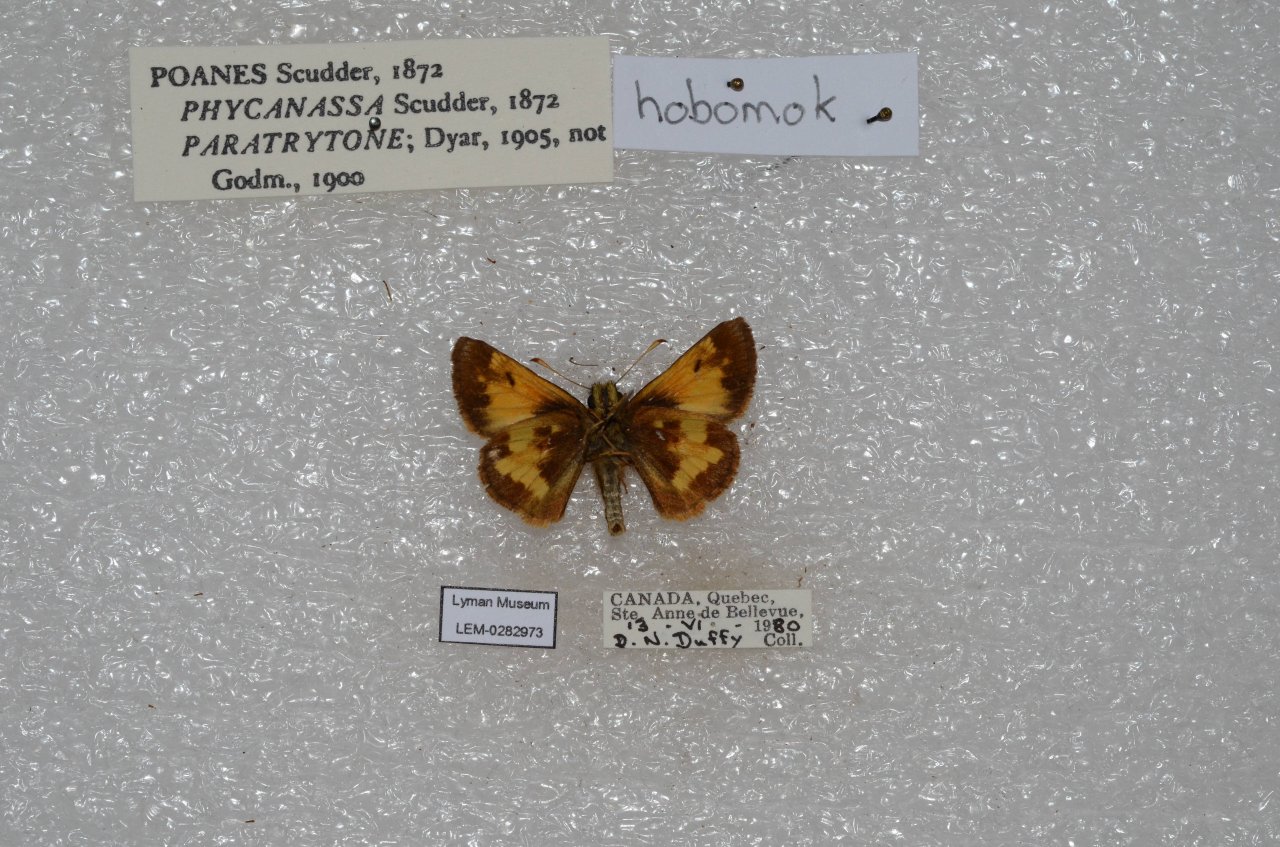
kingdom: Animalia
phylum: Arthropoda
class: Insecta
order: Lepidoptera
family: Hesperiidae
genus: Lon
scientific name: Lon hobomok
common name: Hobomok Skipper
